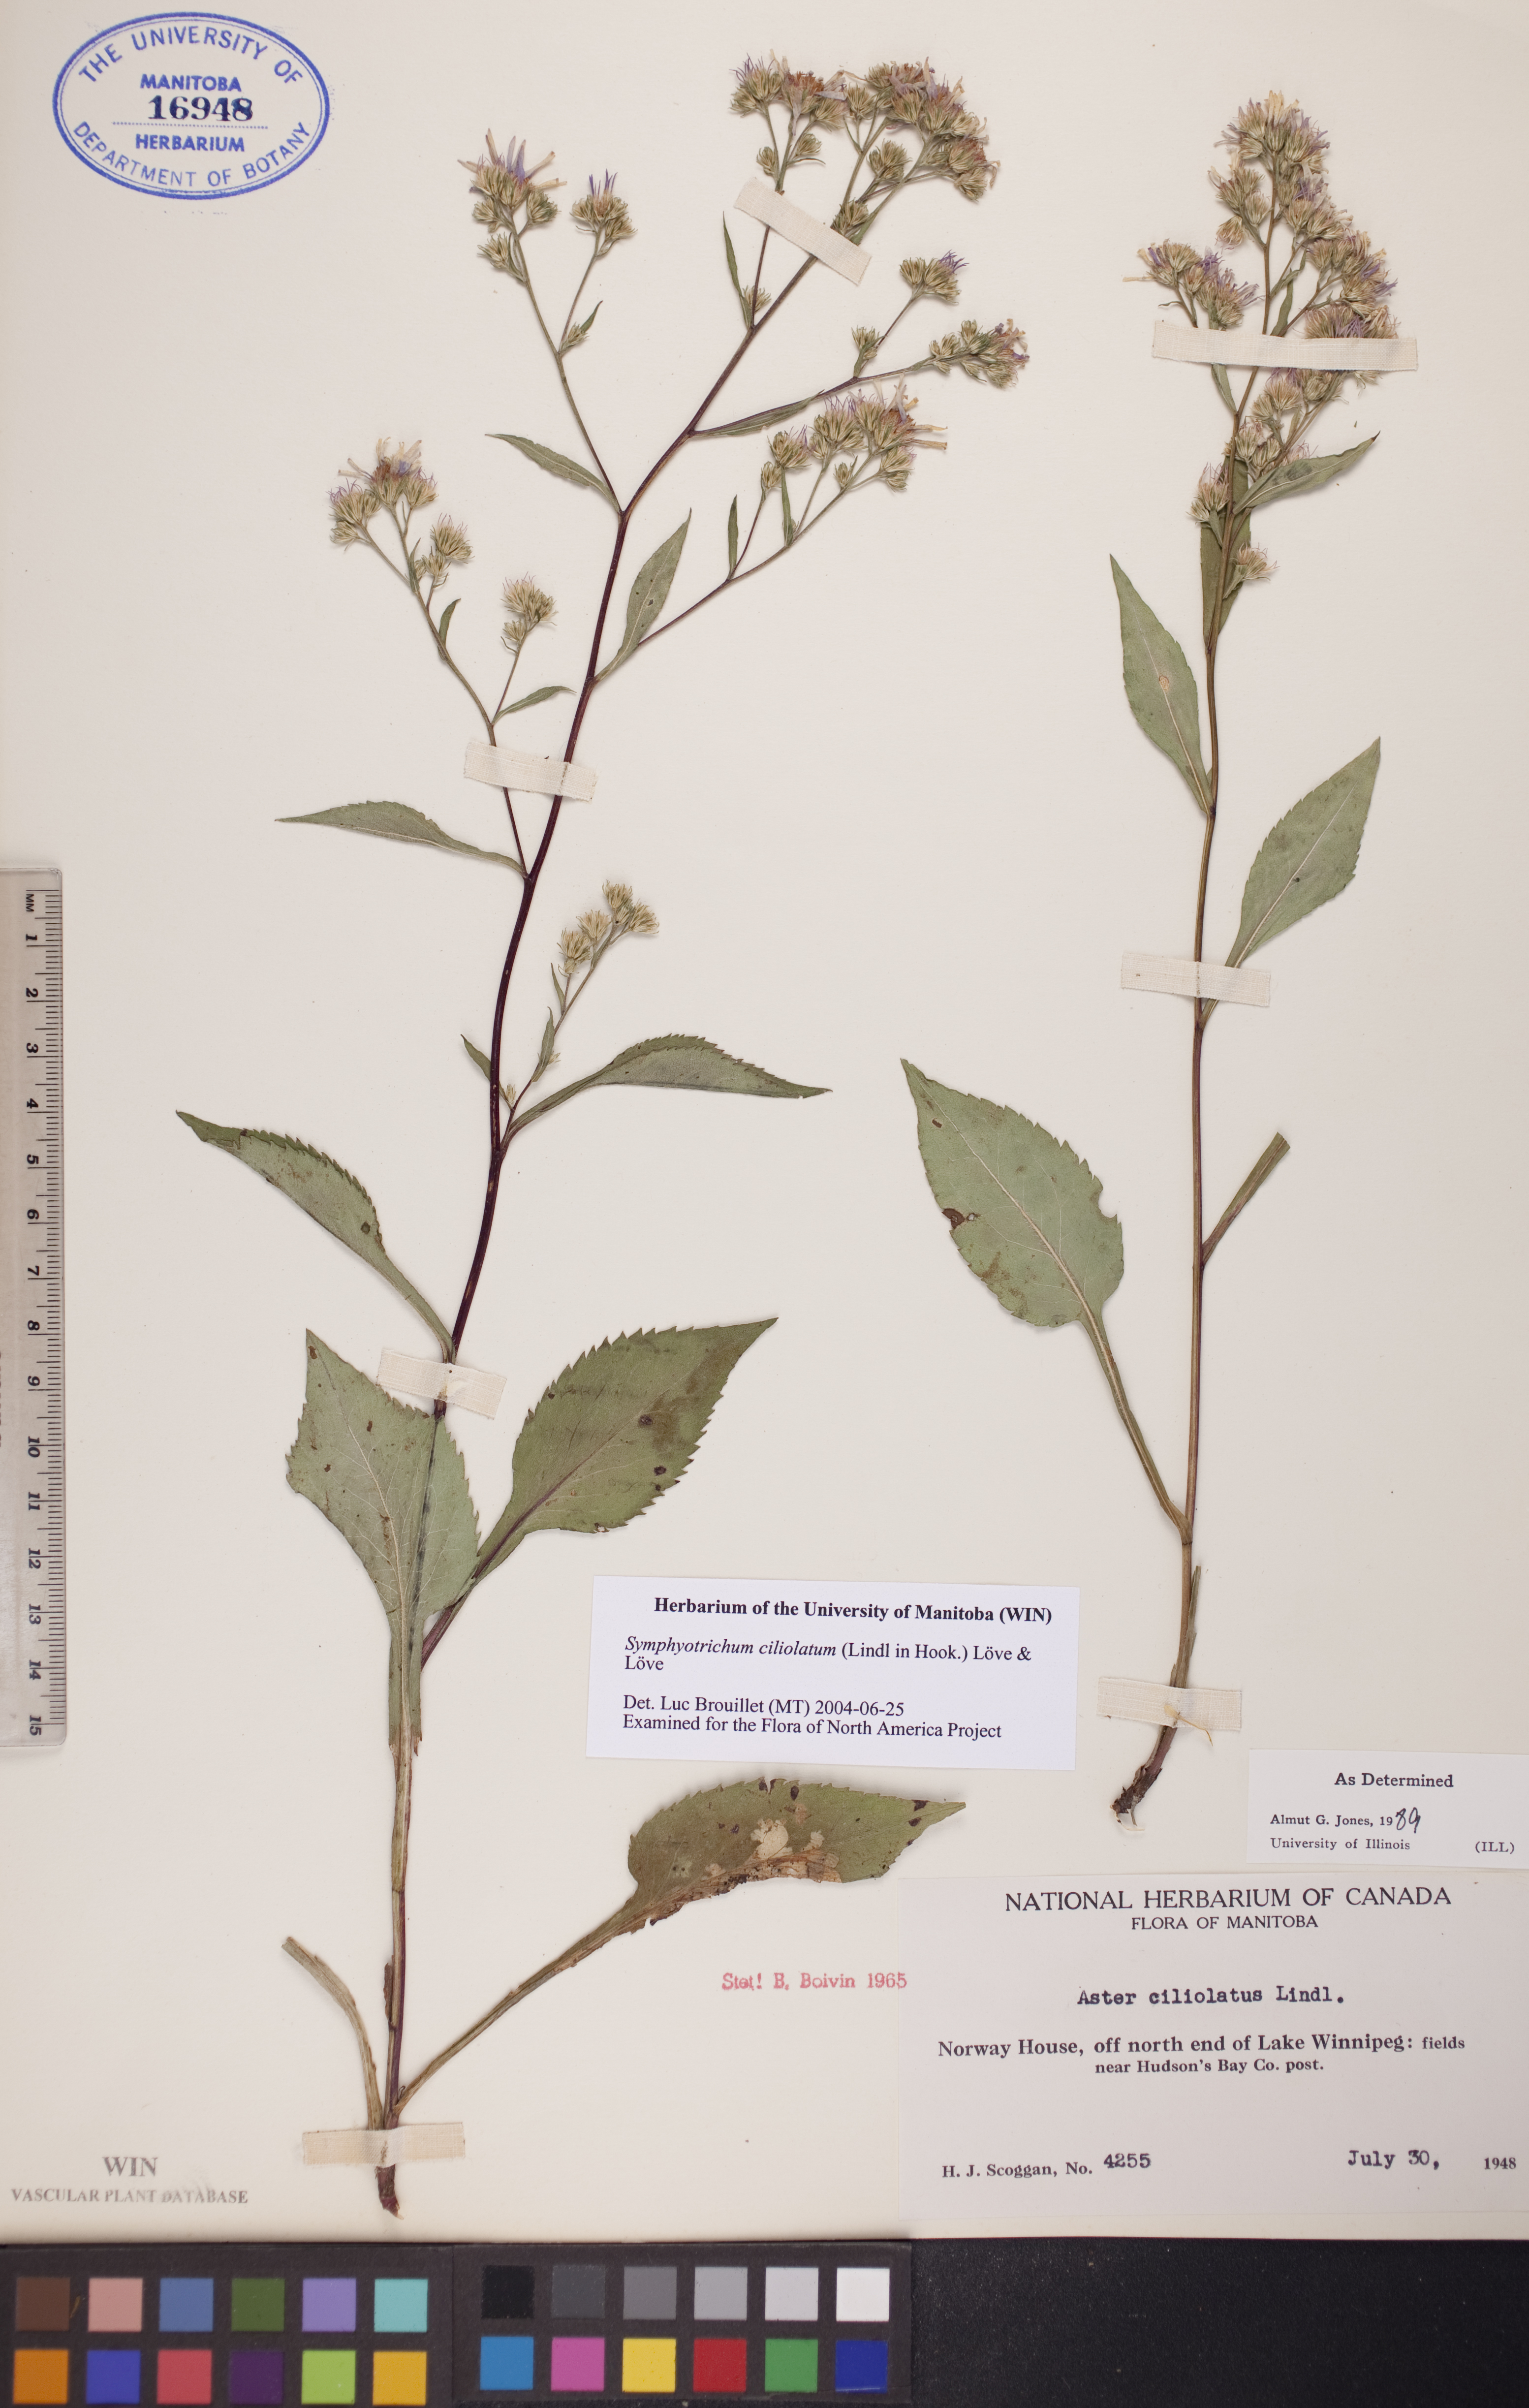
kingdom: Plantae
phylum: Tracheophyta
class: Magnoliopsida
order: Asterales
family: Asteraceae
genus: Symphyotrichum
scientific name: Symphyotrichum ciliolatum
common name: Fringed blue aster
